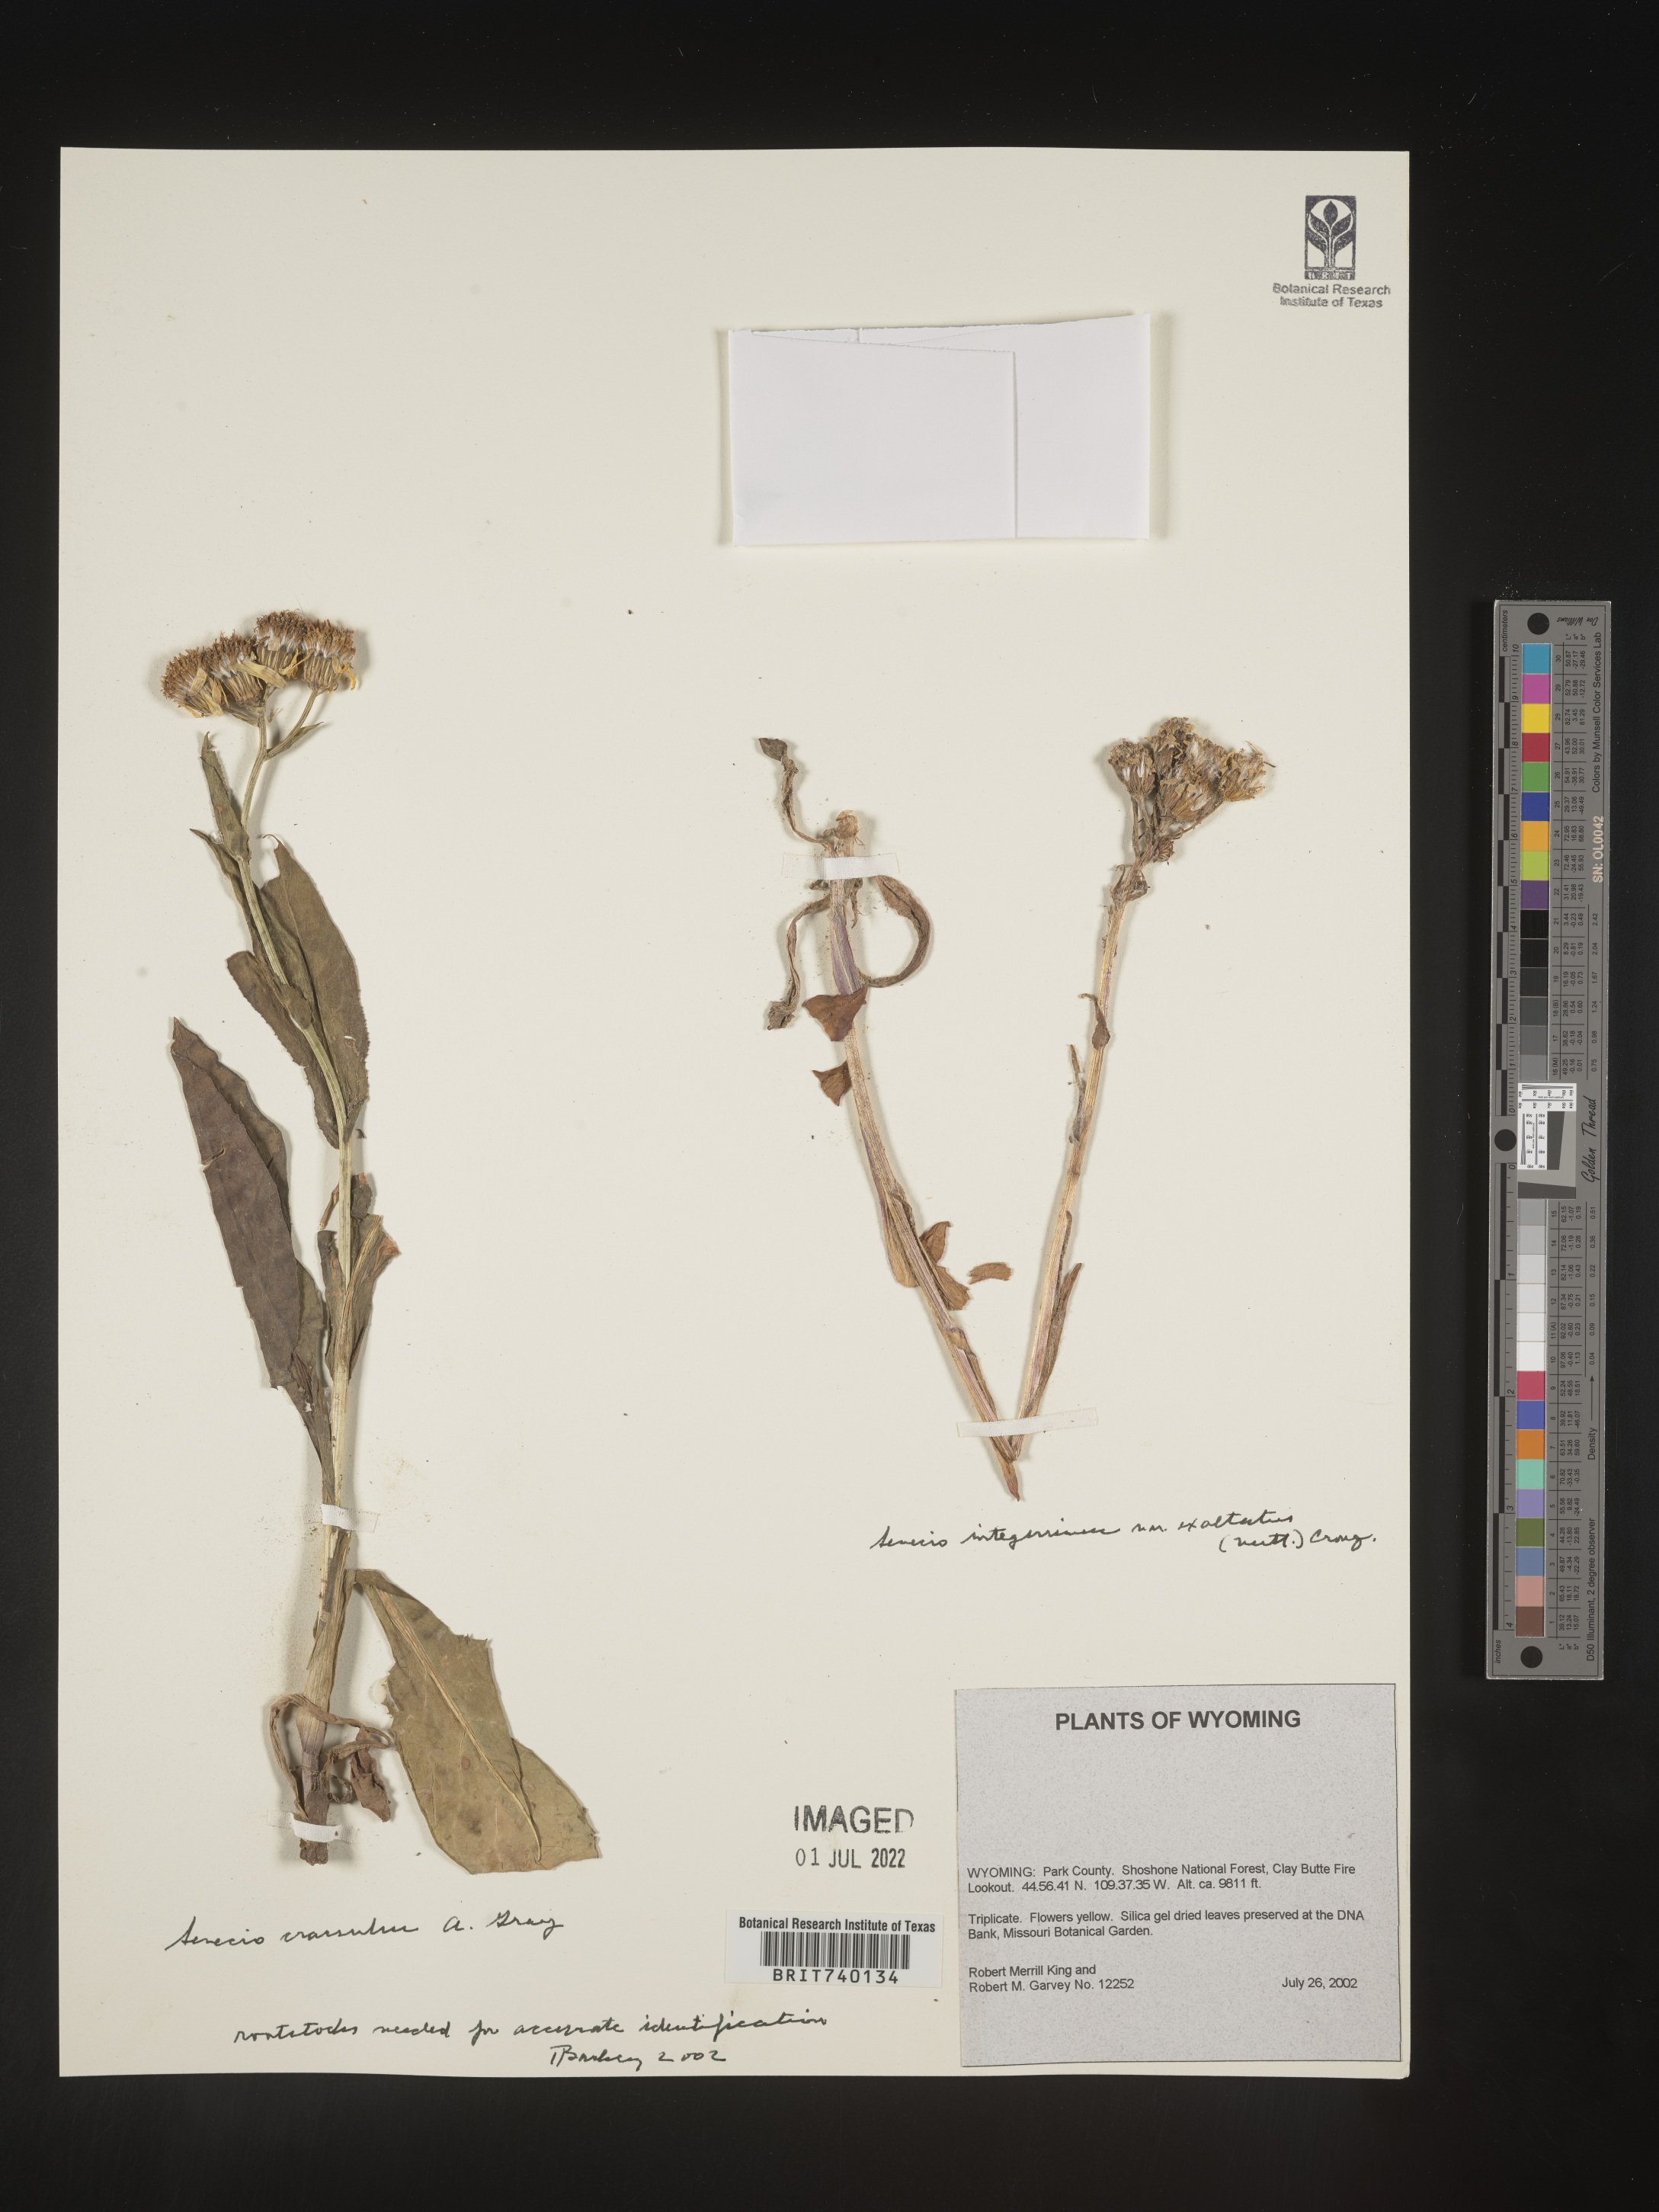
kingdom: Plantae
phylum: Tracheophyta
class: Magnoliopsida
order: Asterales
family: Asteraceae
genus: Senecio
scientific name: Senecio crassulus
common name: Mountain-meadow butterweed
